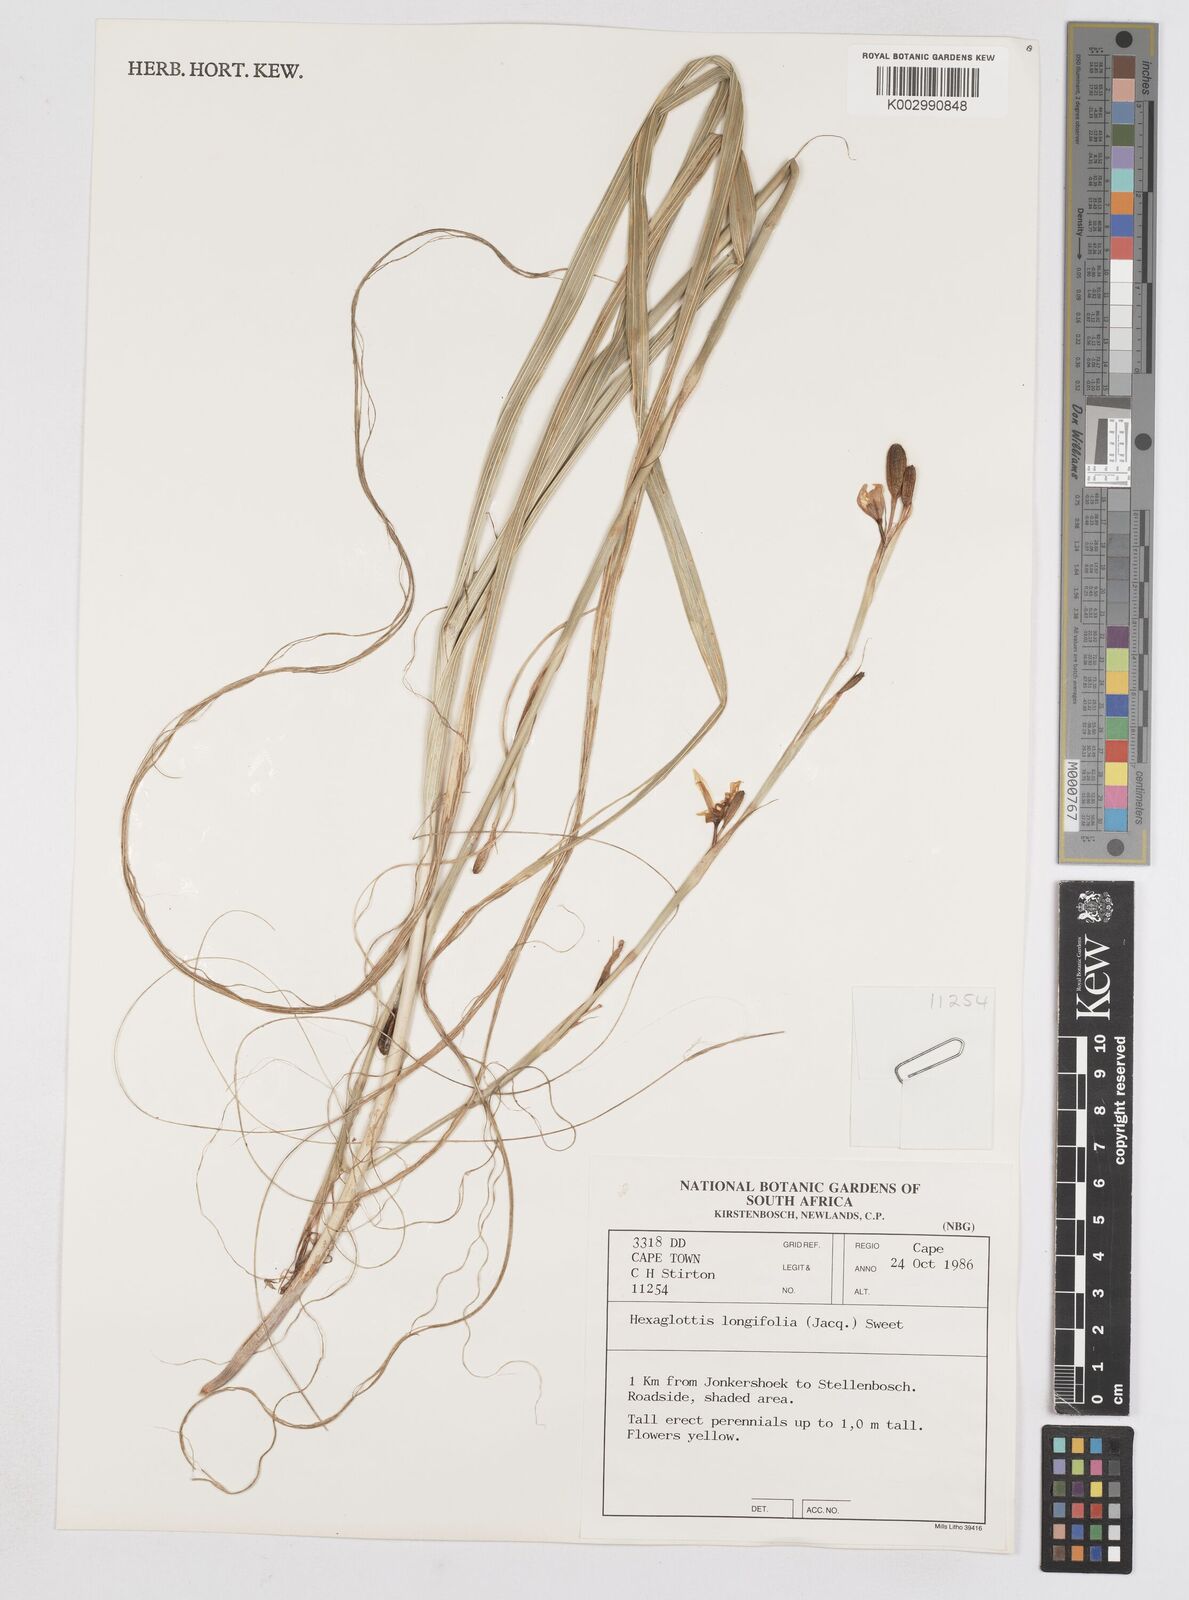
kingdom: Plantae
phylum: Tracheophyta
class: Liliopsida
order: Asparagales
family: Iridaceae
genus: Moraea
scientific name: Moraea
